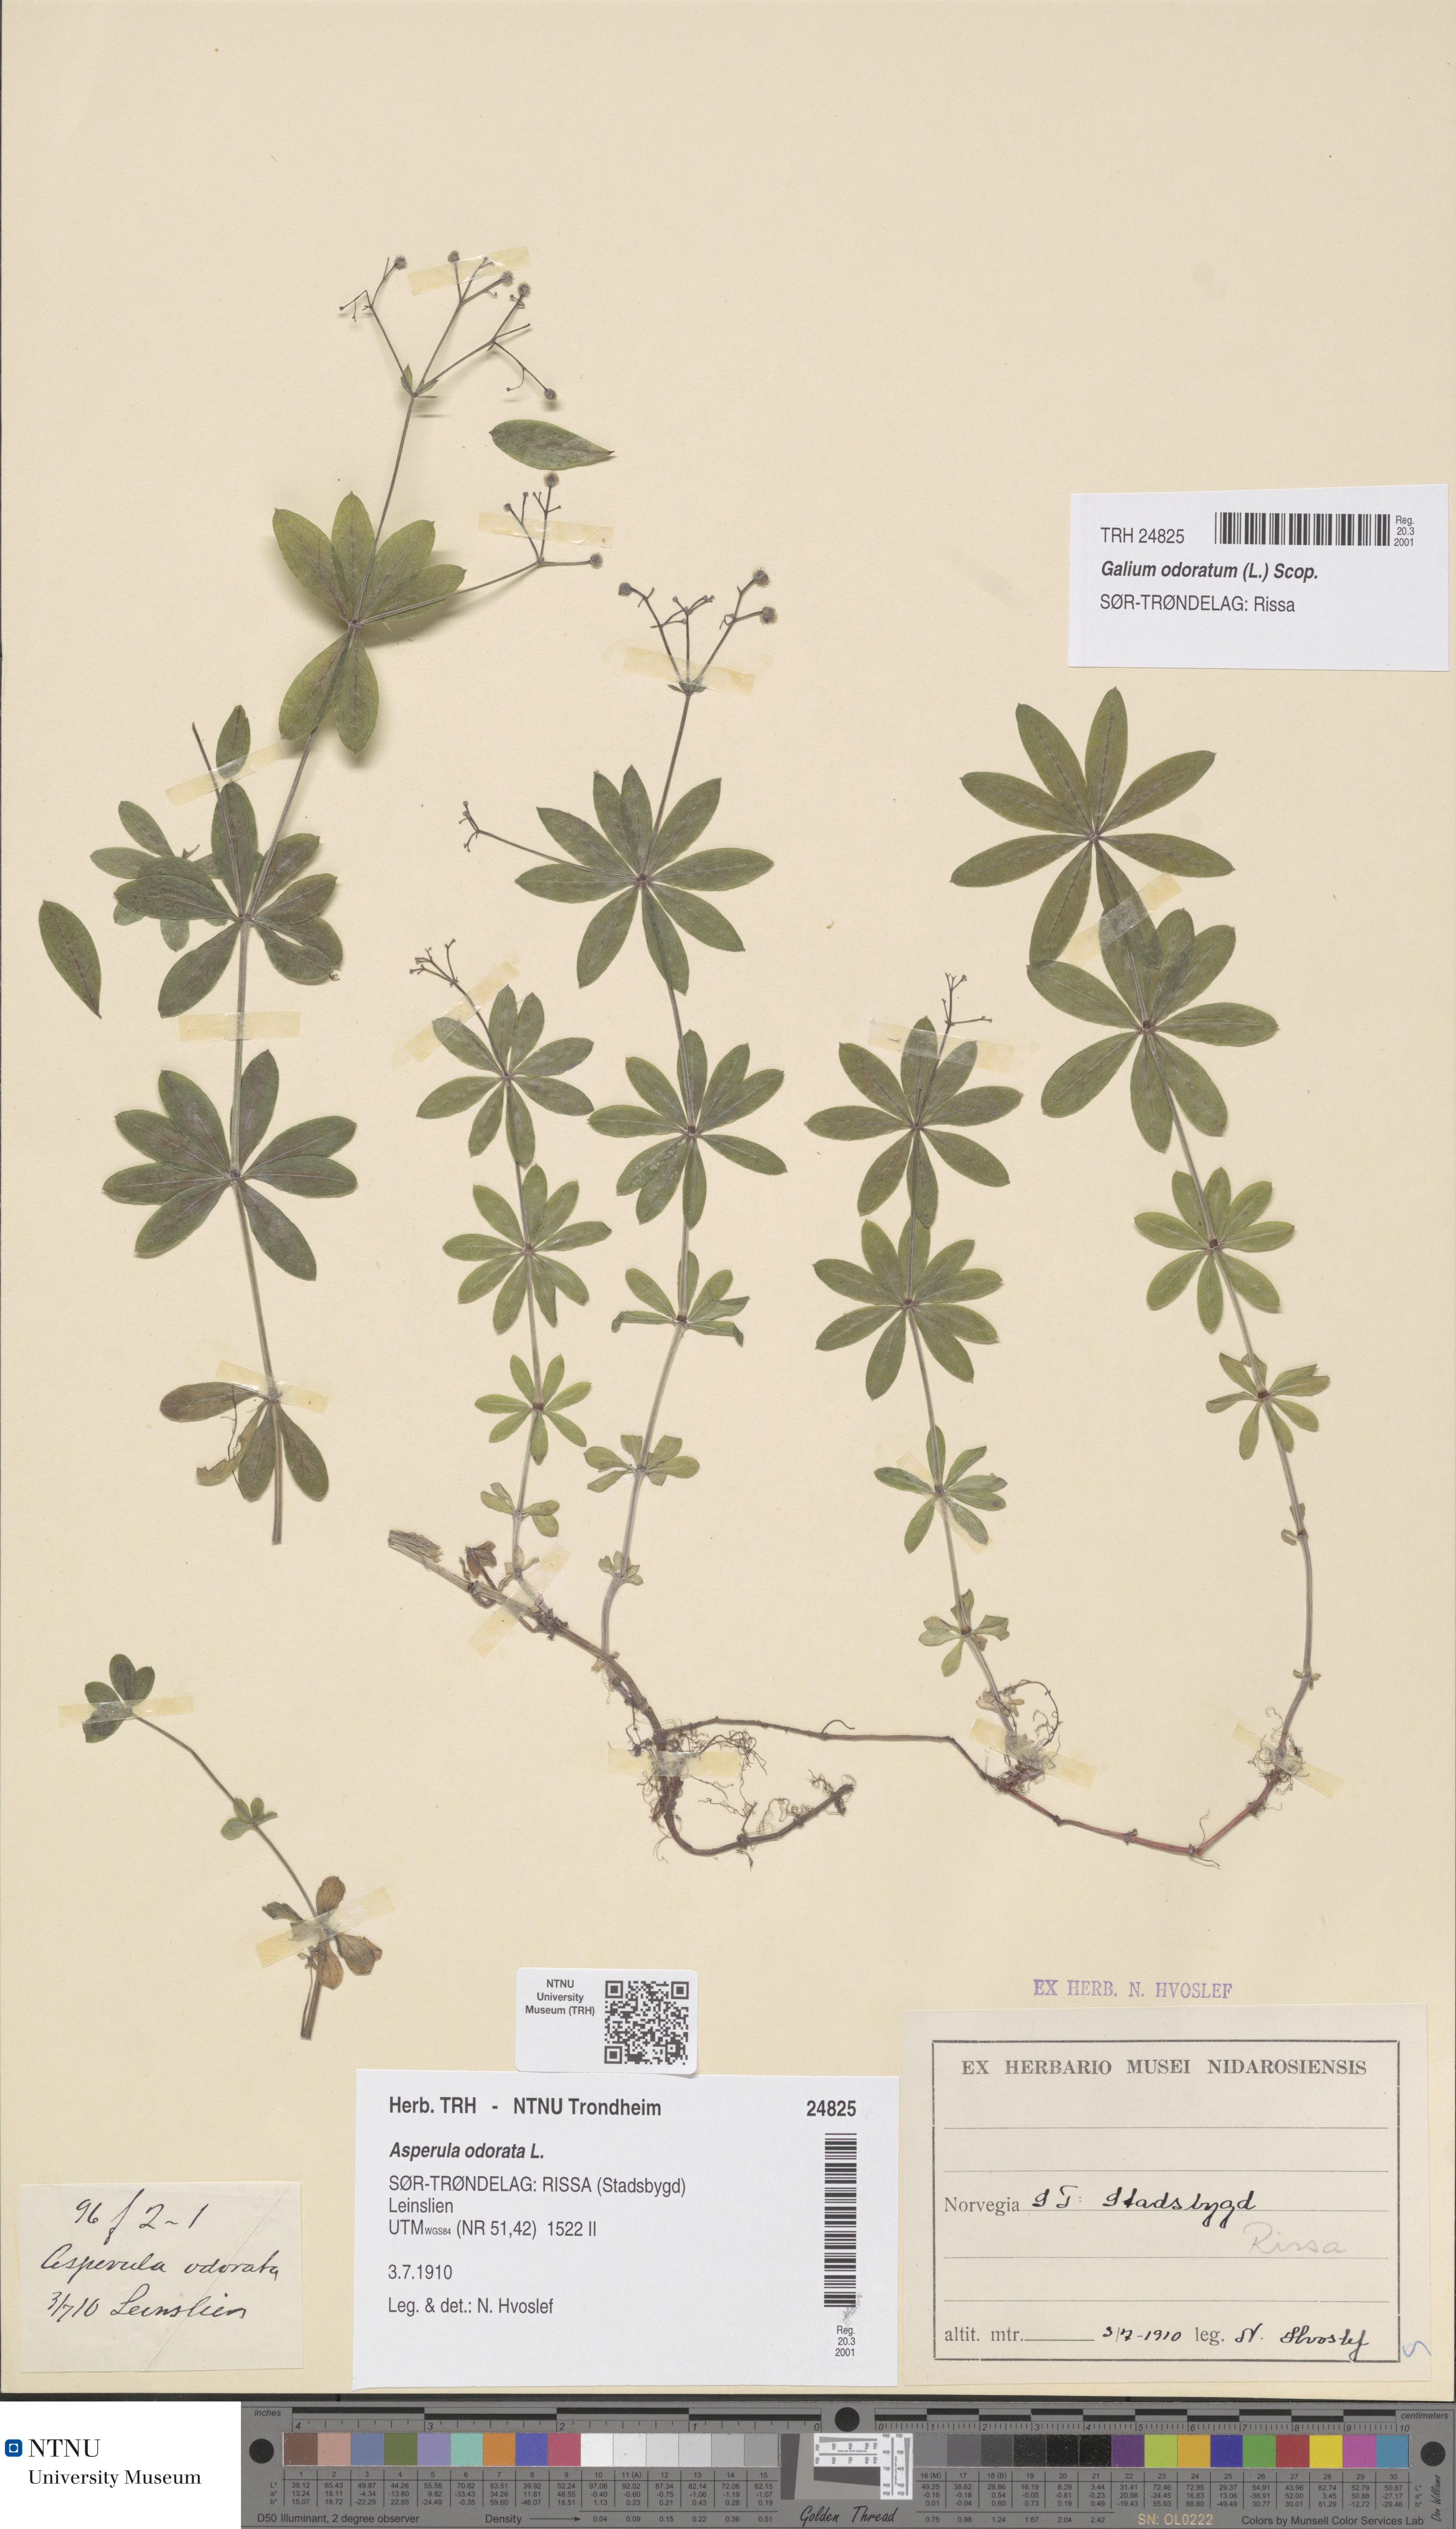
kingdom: Plantae
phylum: Tracheophyta
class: Magnoliopsida
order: Gentianales
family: Rubiaceae
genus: Galium
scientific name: Galium odoratum
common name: Sweet woodruff
